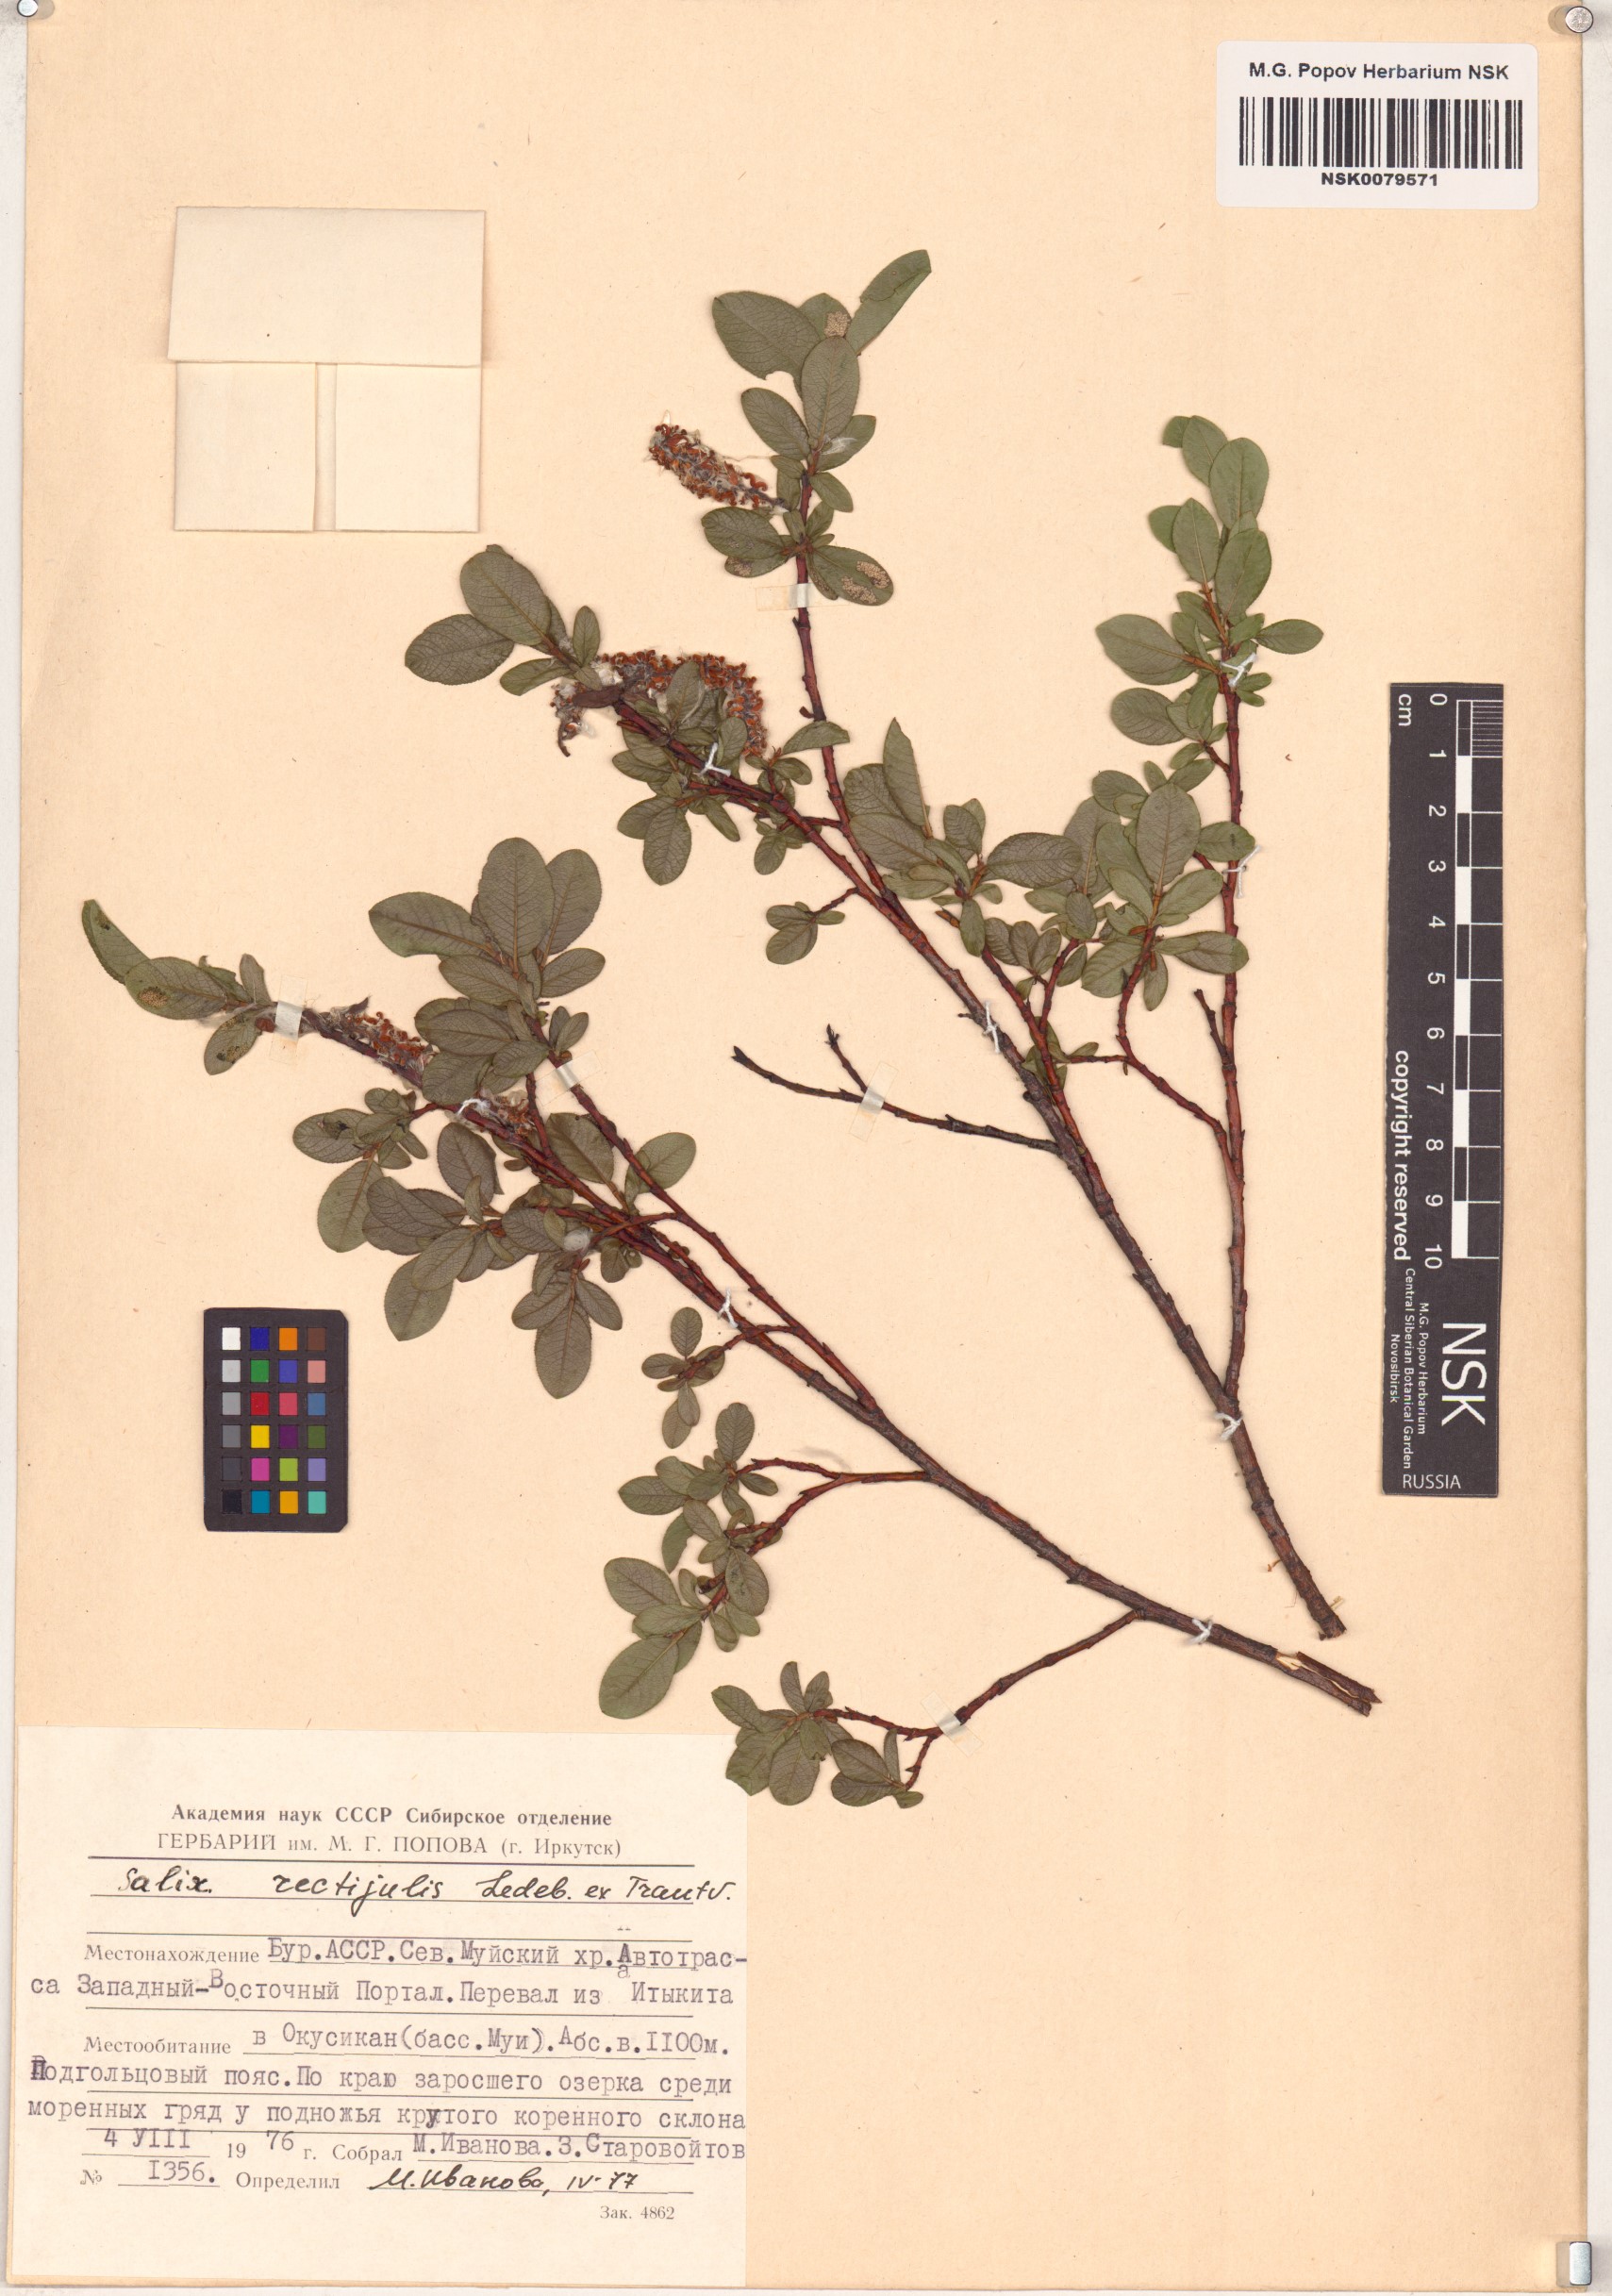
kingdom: Plantae
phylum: Tracheophyta
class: Magnoliopsida
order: Malpighiales
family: Salicaceae
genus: Salix
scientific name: Salix rectijulis
